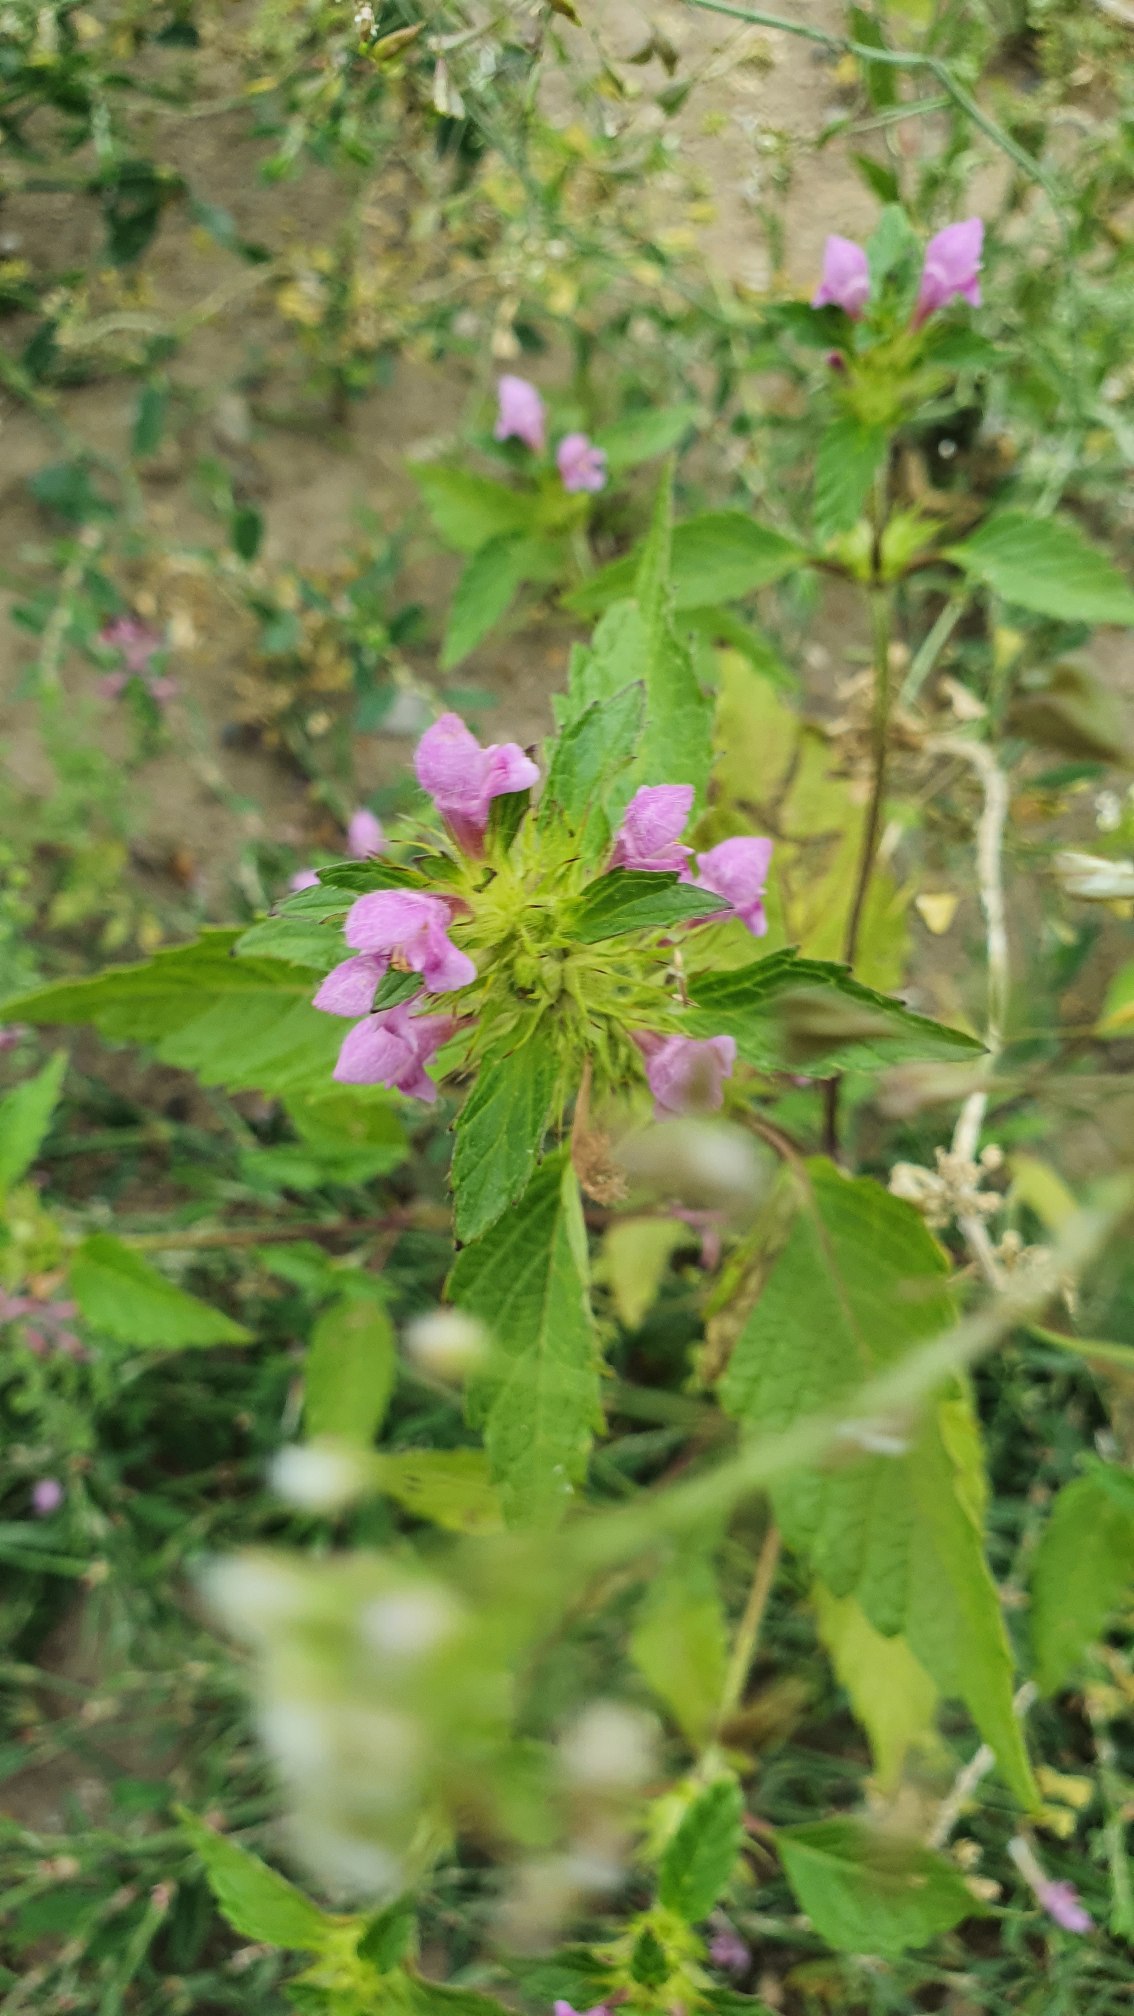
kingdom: Plantae
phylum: Tracheophyta
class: Magnoliopsida
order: Lamiales
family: Lamiaceae
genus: Galeopsis
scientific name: Galeopsis tetrahit
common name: Almindelig hanekro
